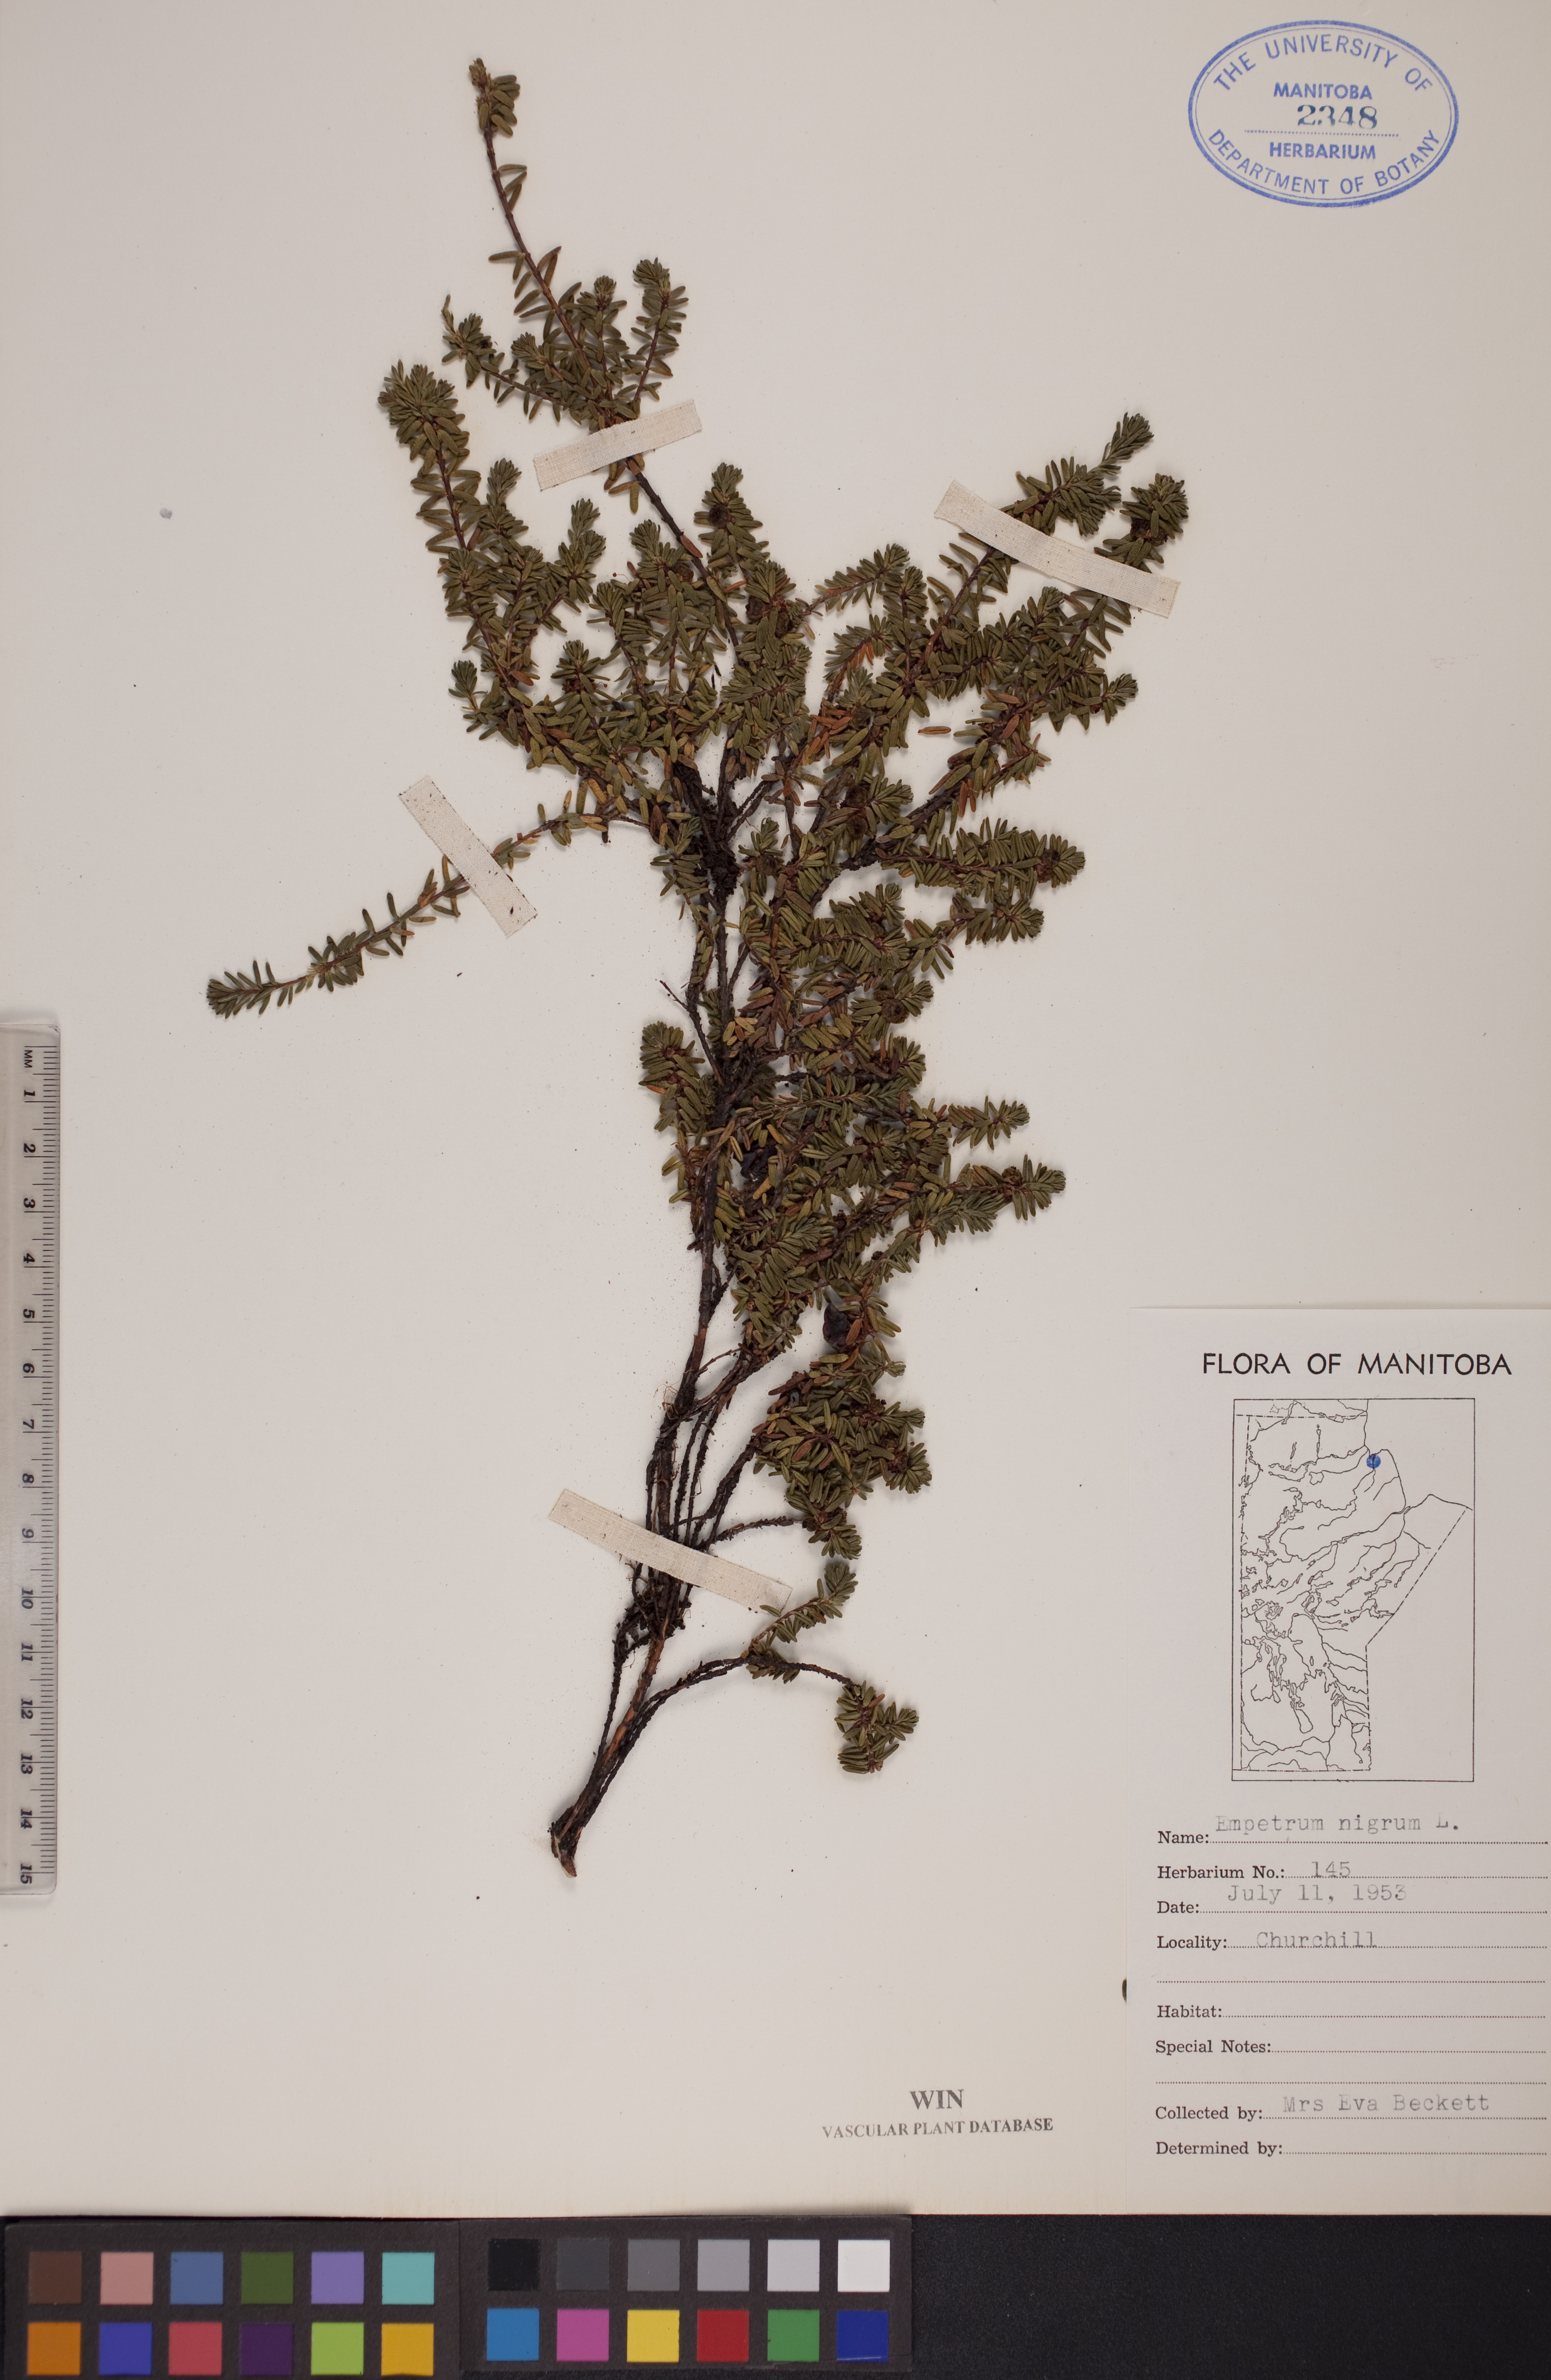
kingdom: Plantae
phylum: Tracheophyta
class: Magnoliopsida
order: Ericales
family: Ericaceae
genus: Empetrum
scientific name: Empetrum nigrum
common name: Black crowberry
